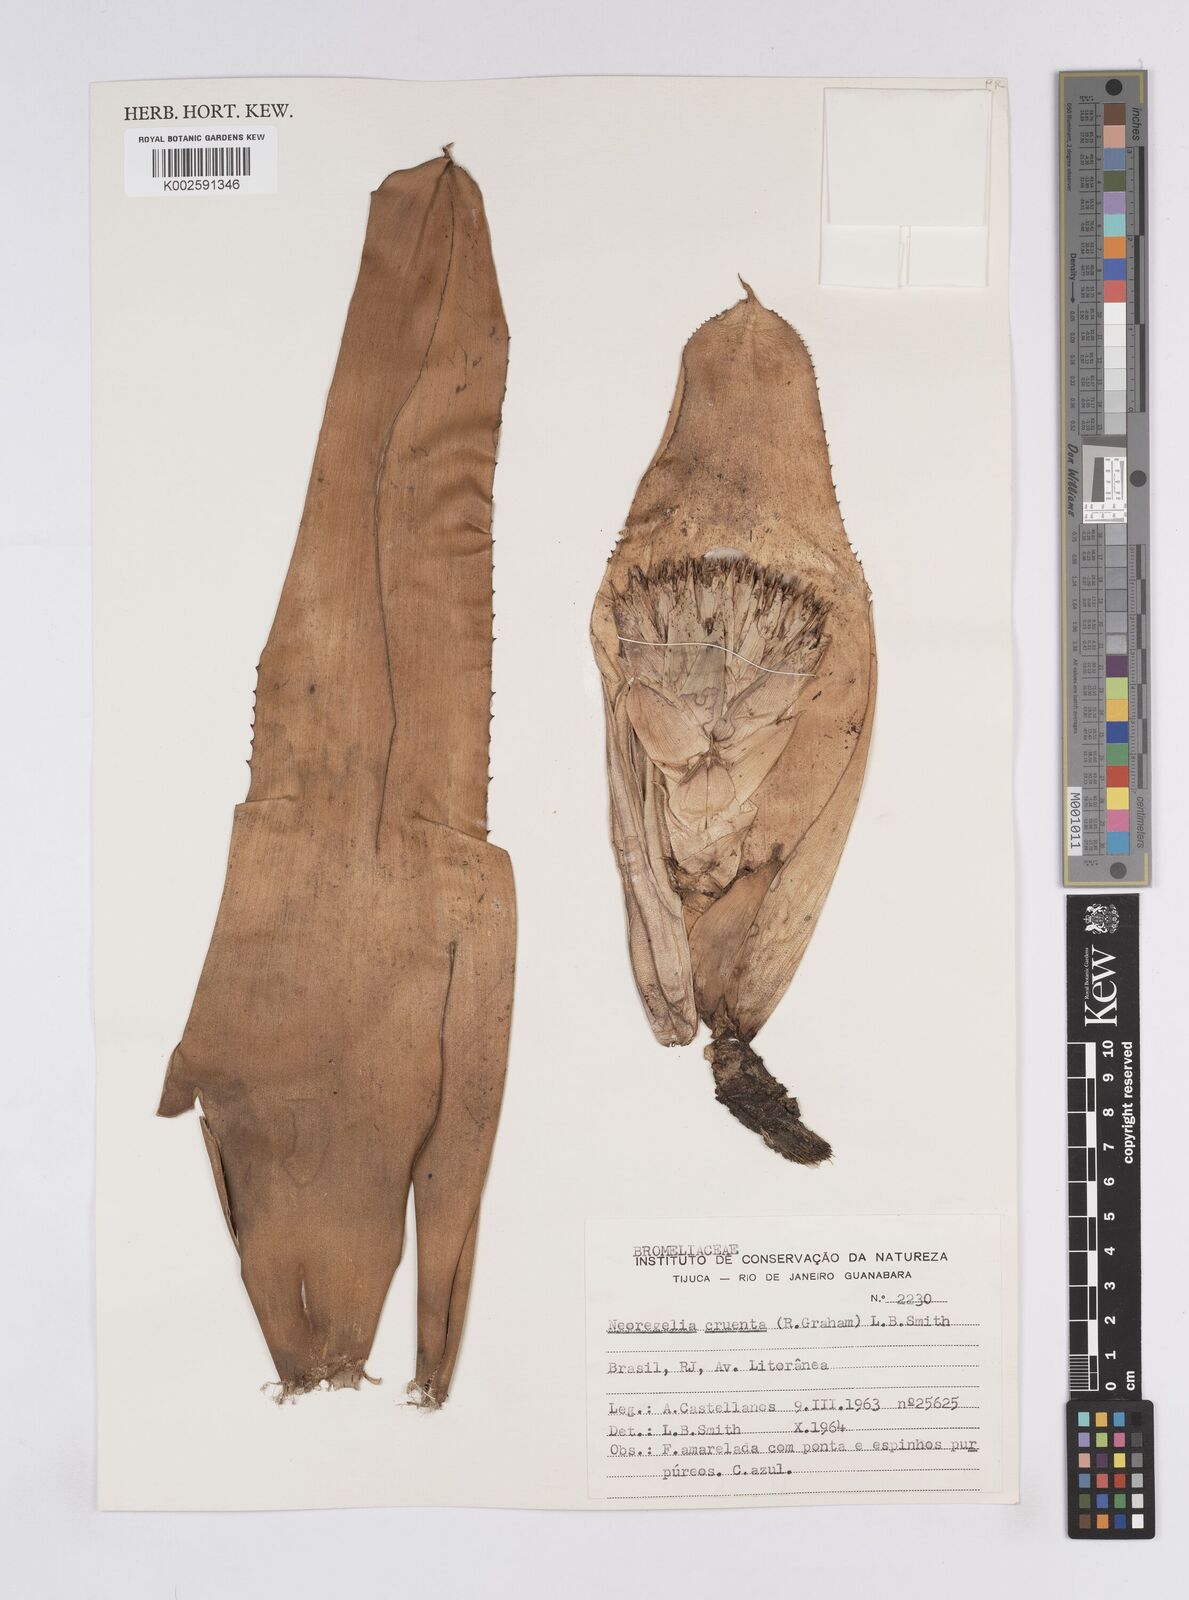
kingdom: Plantae
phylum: Tracheophyta
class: Liliopsida
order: Poales
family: Bromeliaceae
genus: Neoregelia
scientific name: Neoregelia cruenta
